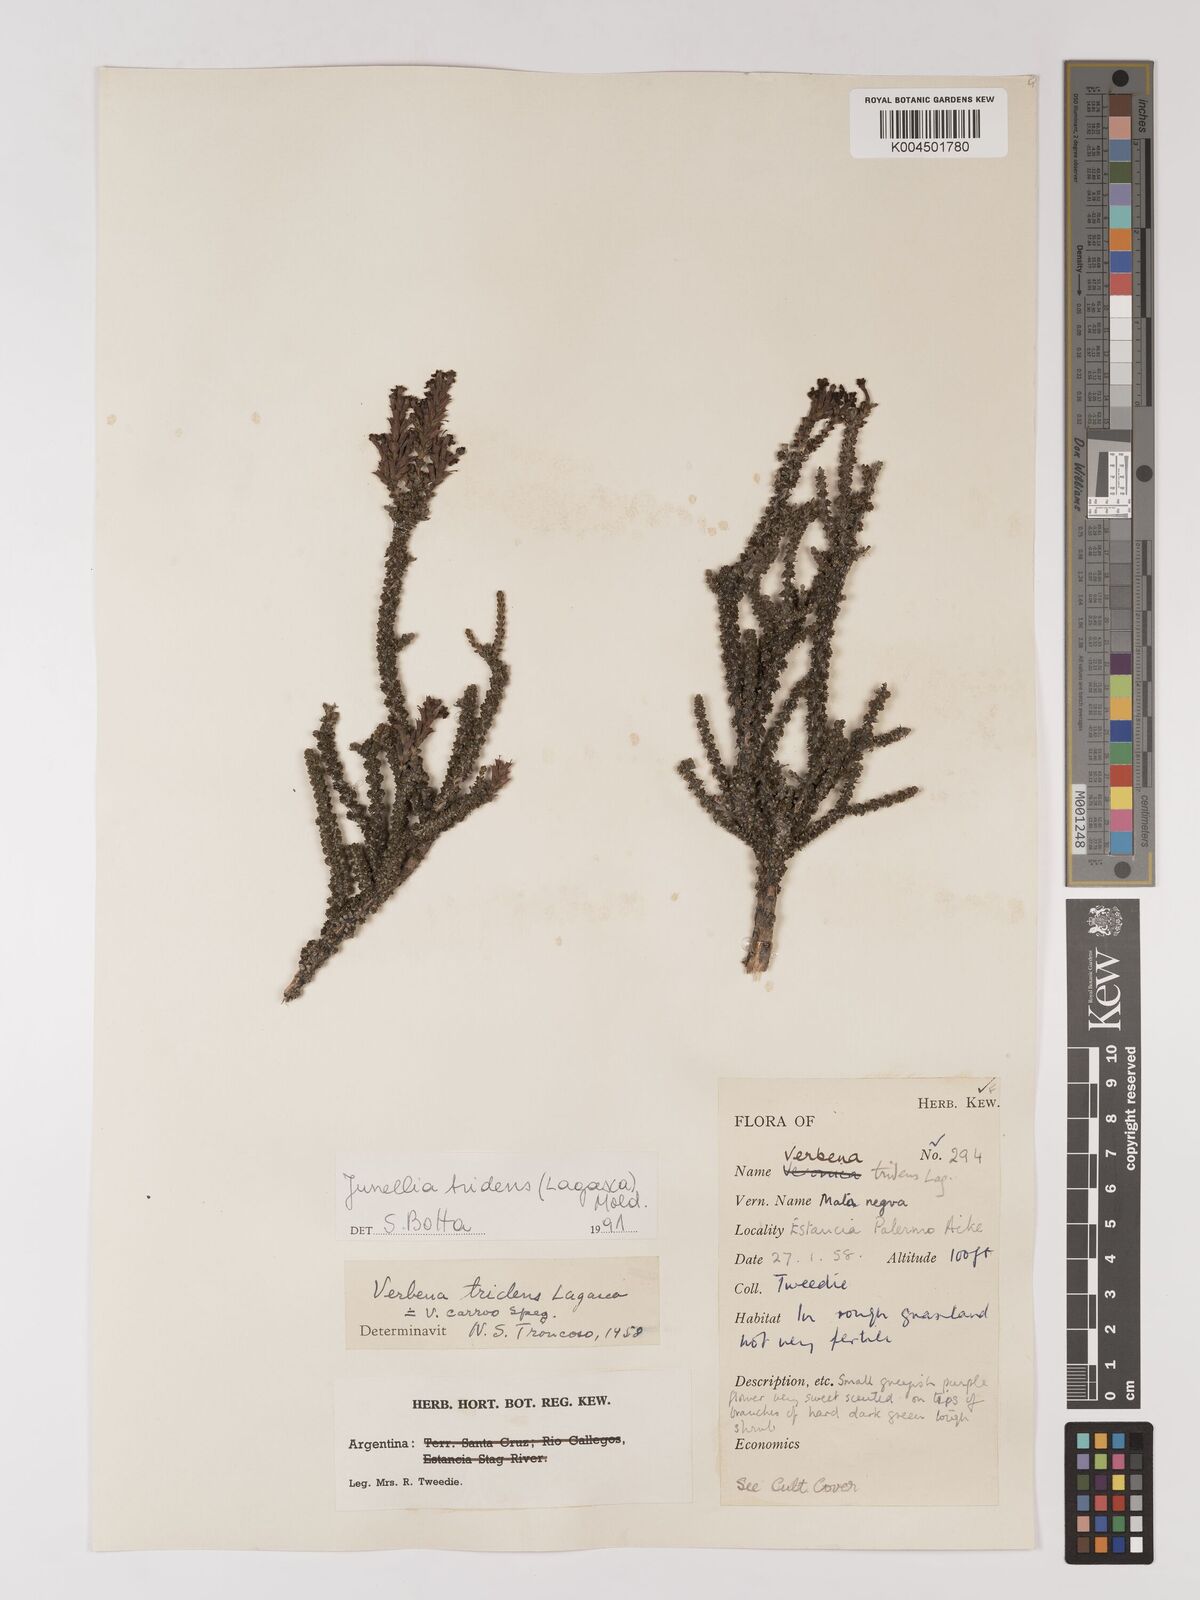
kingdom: Plantae
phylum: Tracheophyta
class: Magnoliopsida
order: Lamiales
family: Verbenaceae
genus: Mulguraea
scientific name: Mulguraea tridens
